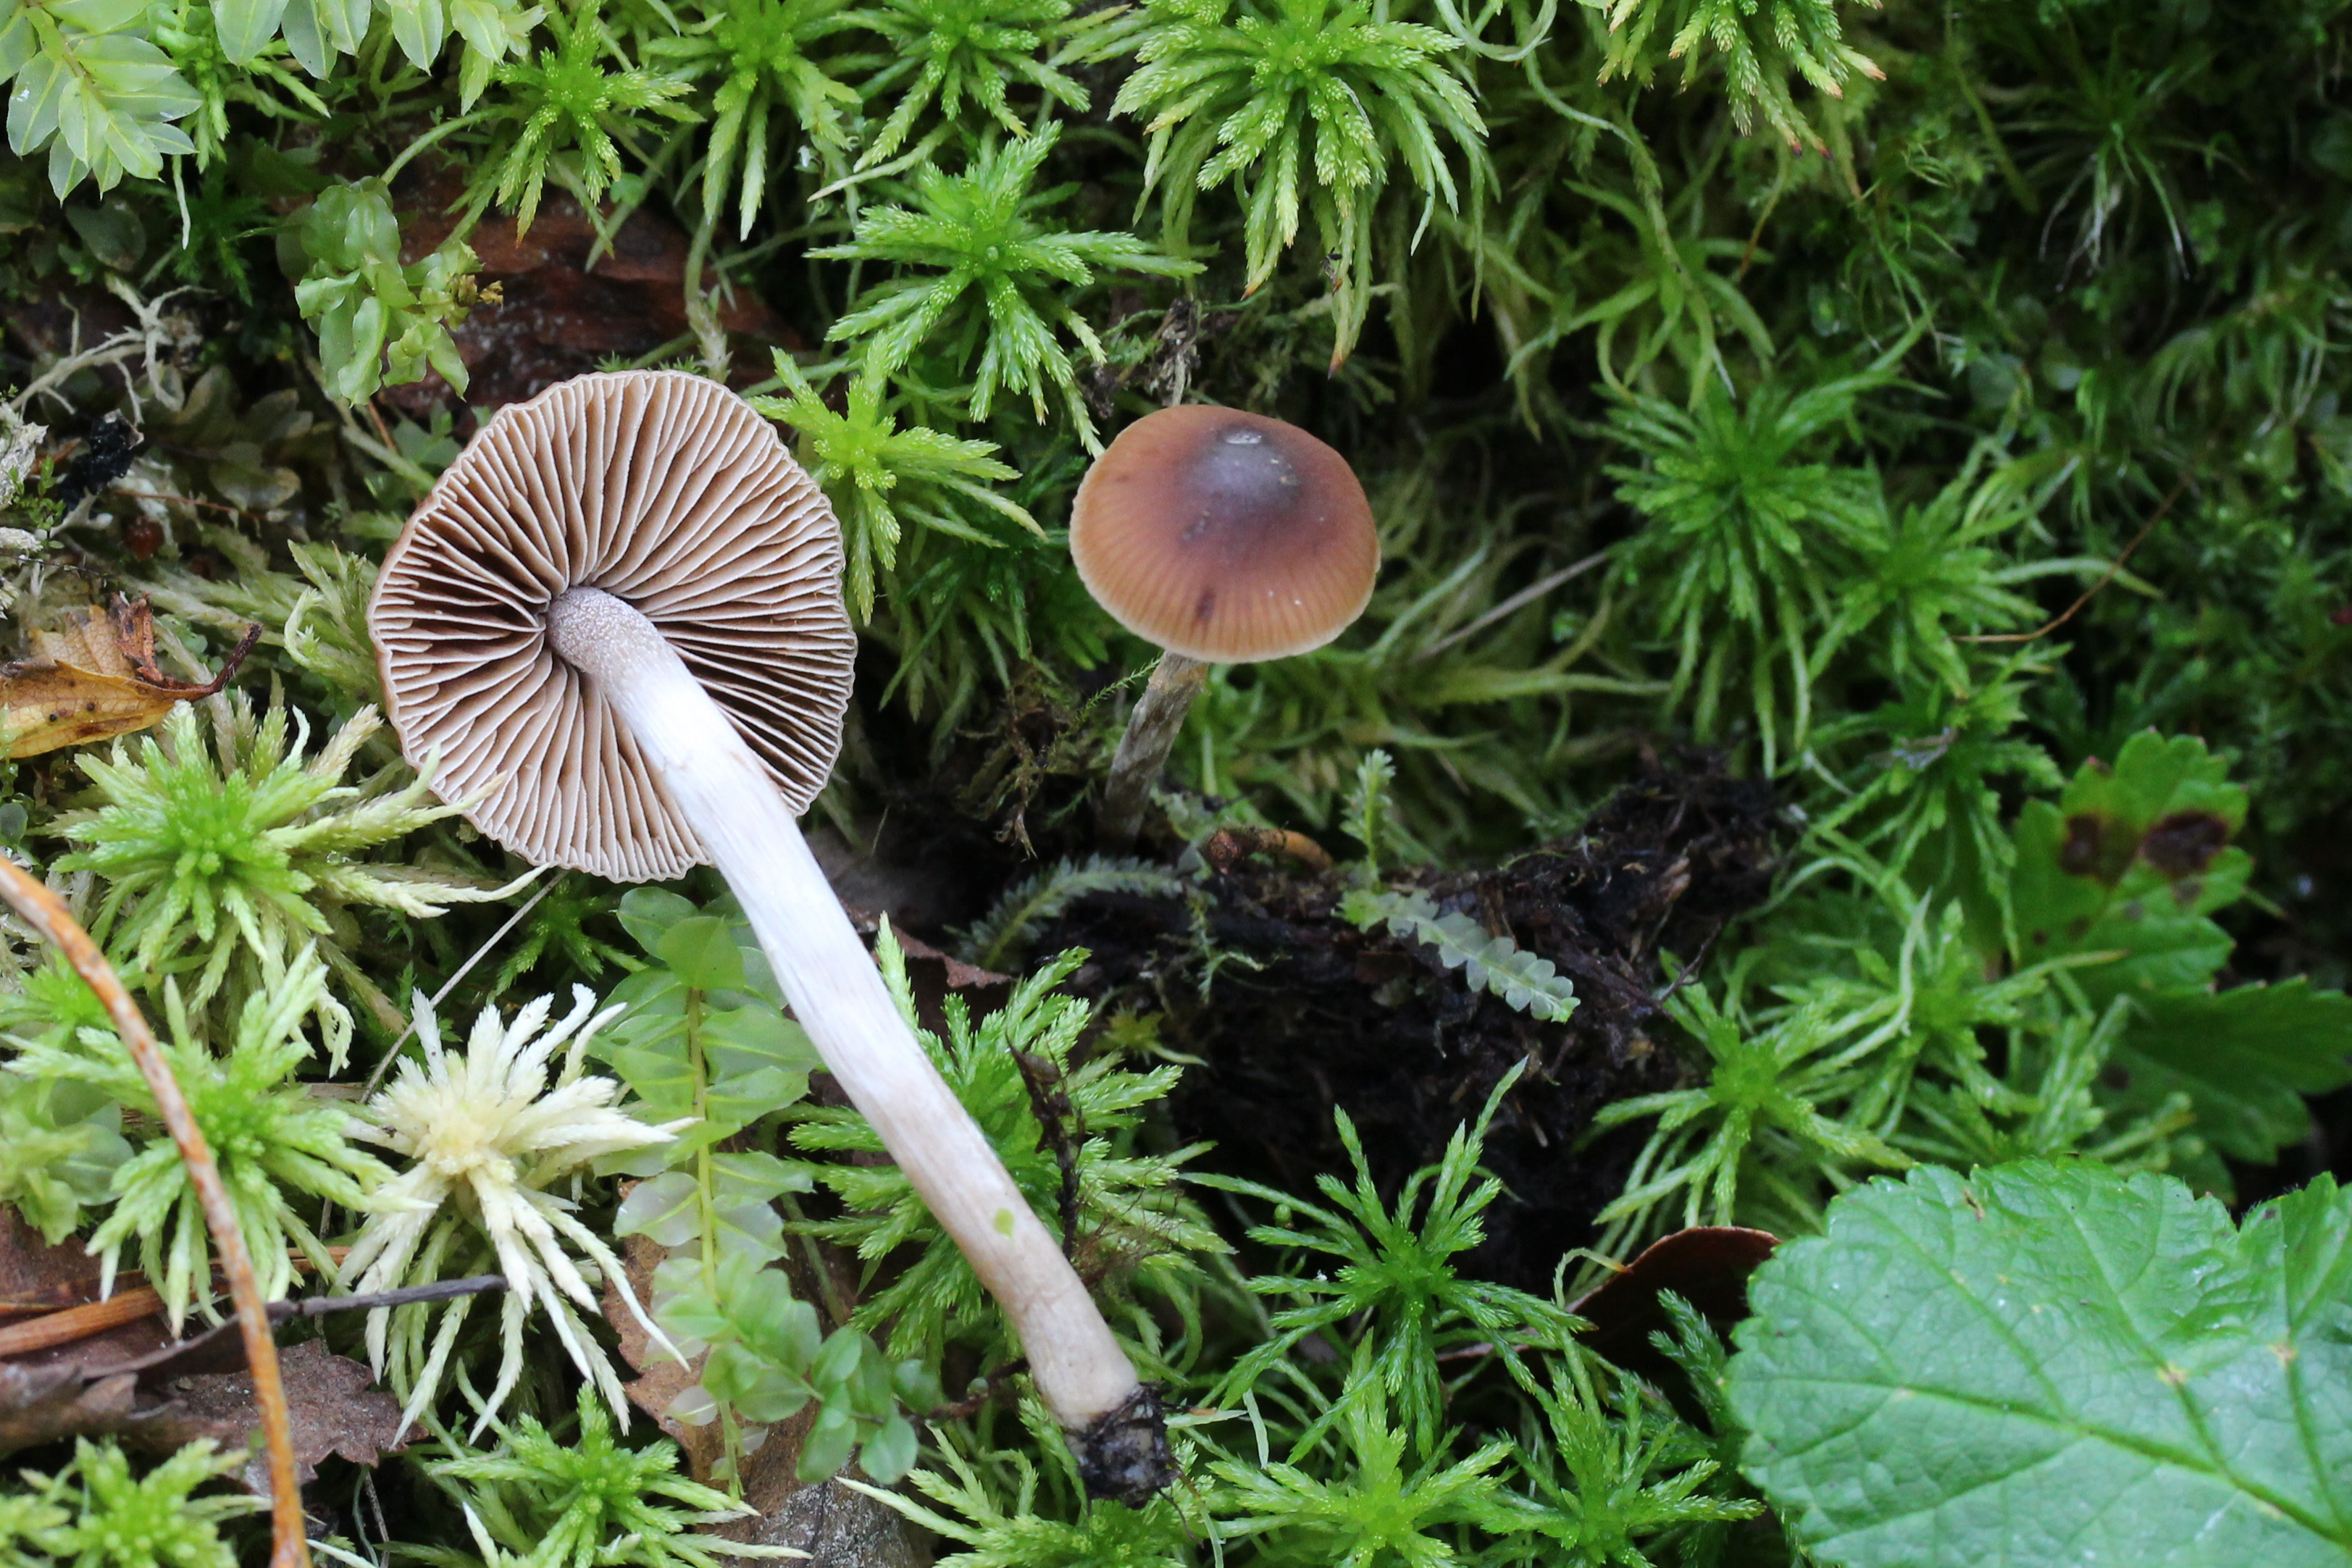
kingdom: Fungi
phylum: Basidiomycota
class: Agaricomycetes
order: Agaricales
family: Hymenogastraceae
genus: Naucoria
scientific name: Naucoria bohemica
